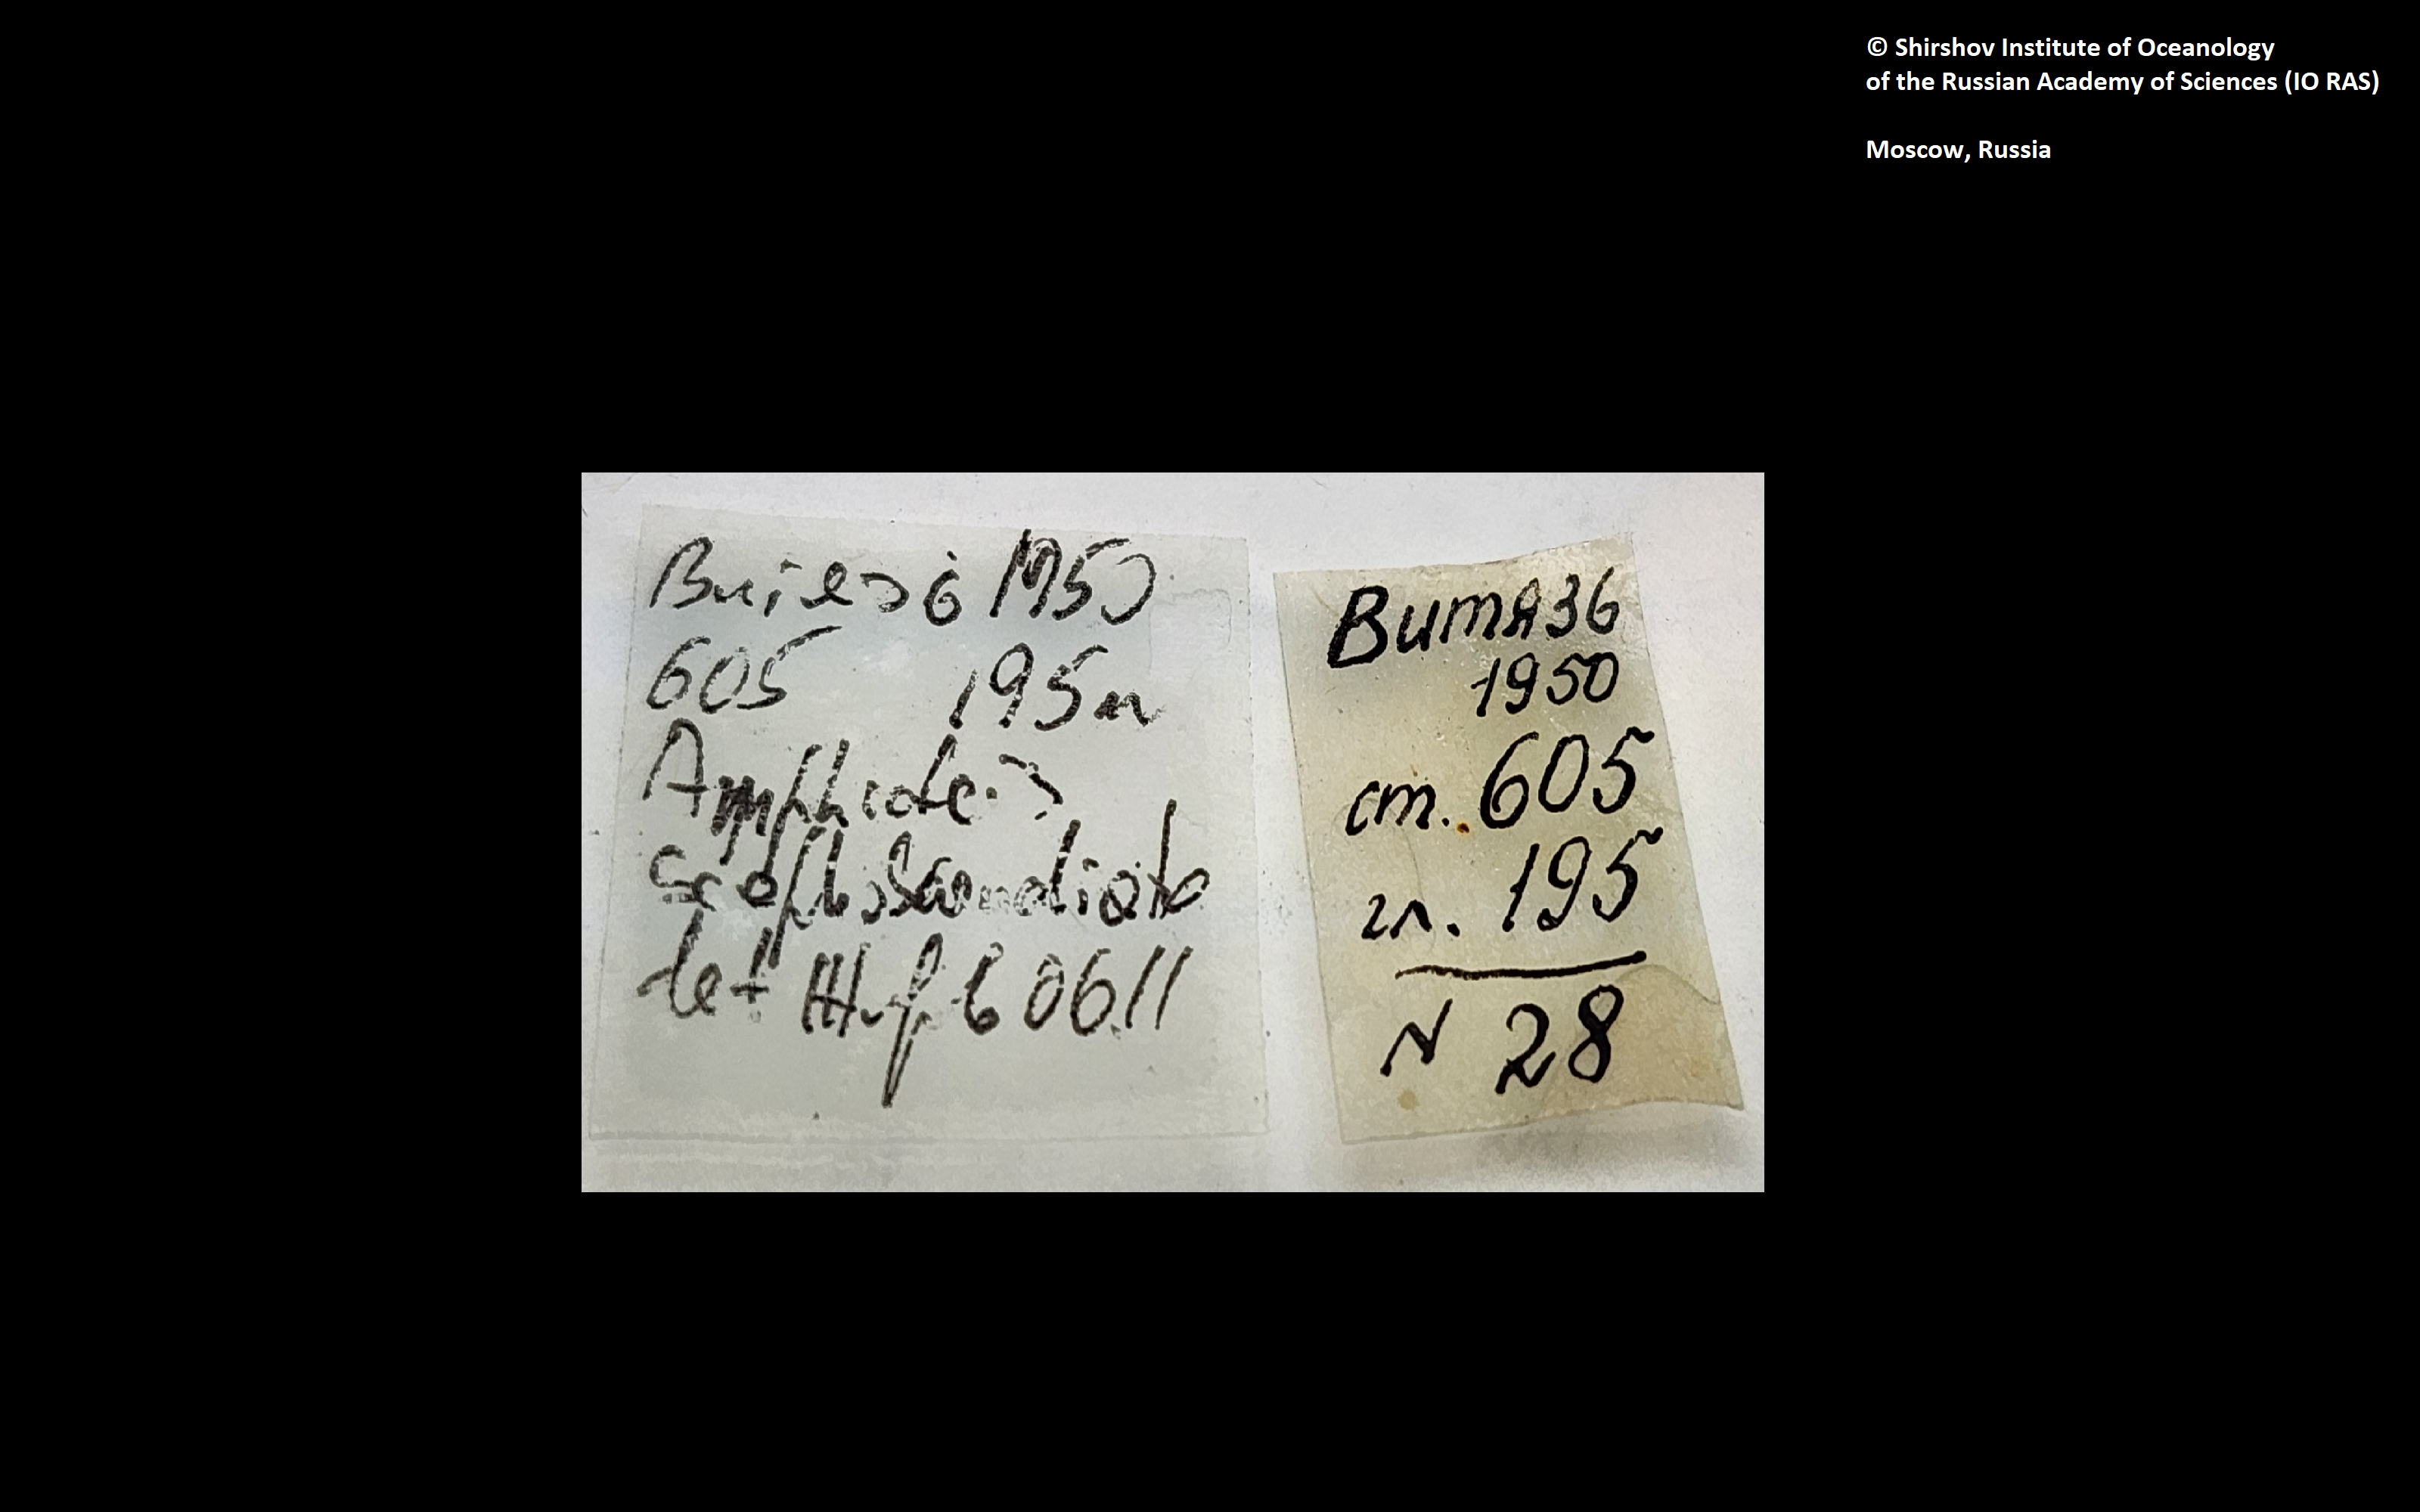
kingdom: Animalia
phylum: Annelida
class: Polychaeta
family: Ampharetidae
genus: Amphicteis
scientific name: Amphicteis nikiti
